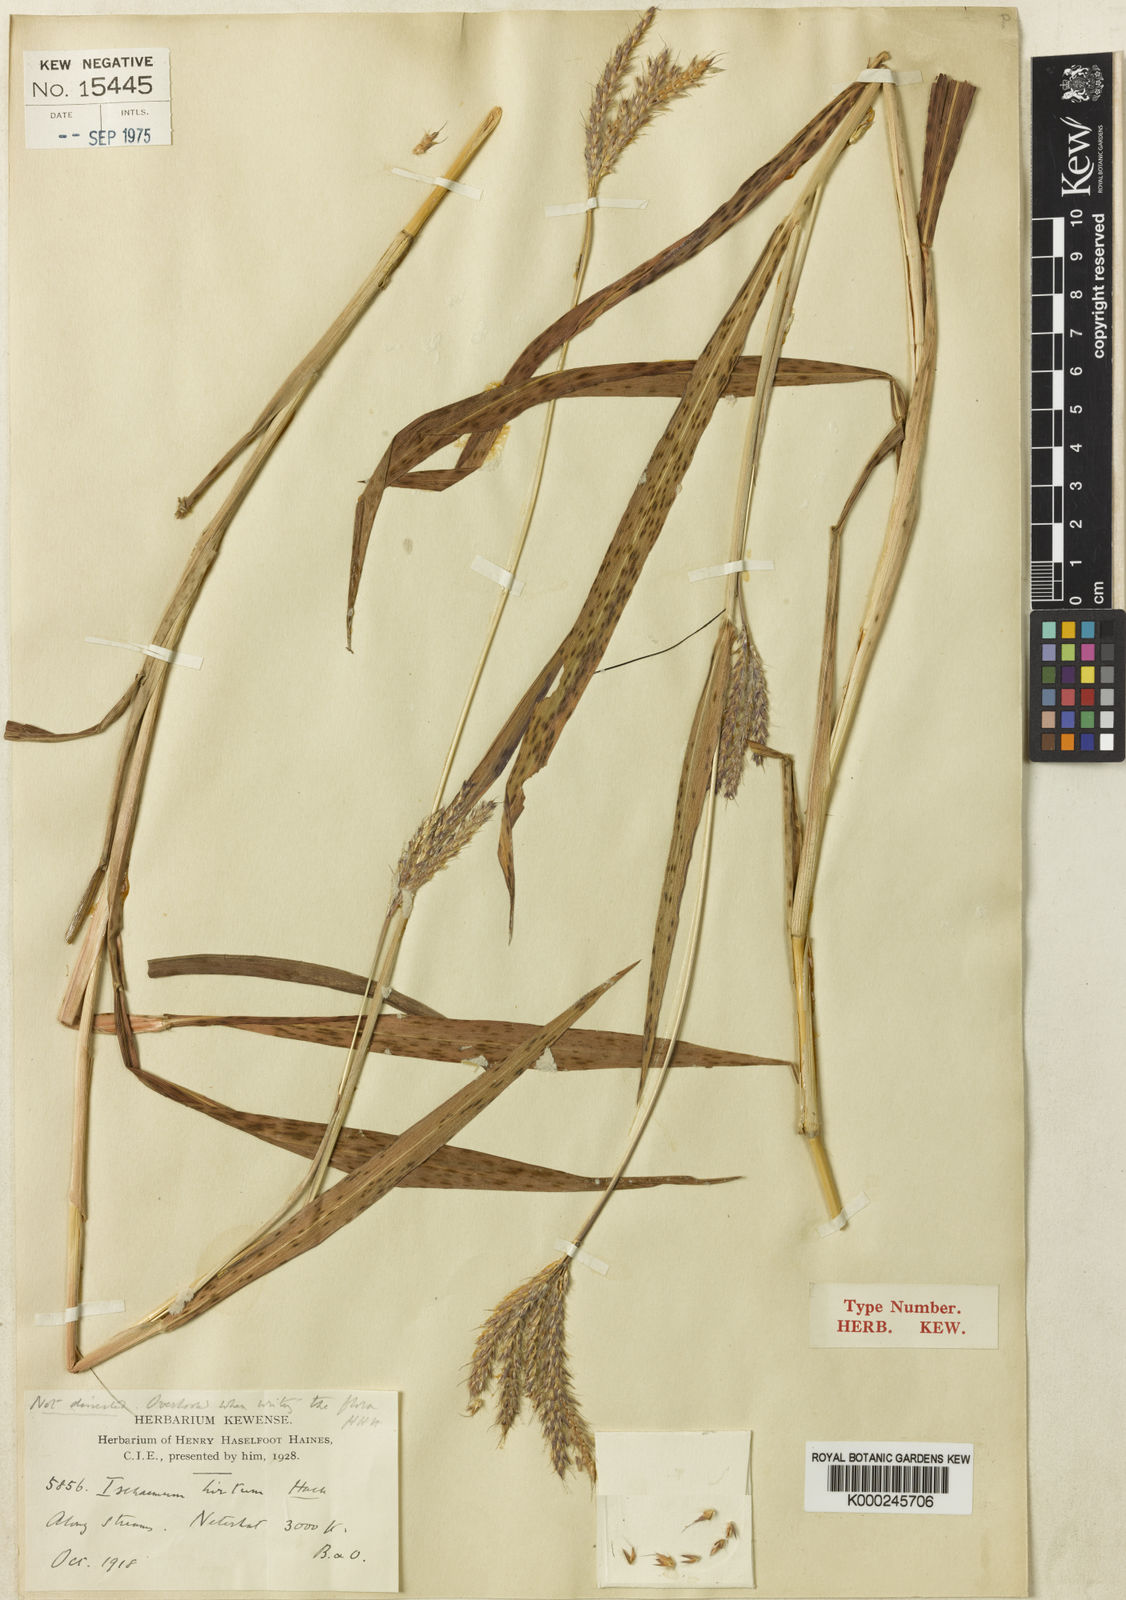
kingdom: Plantae
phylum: Tracheophyta
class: Liliopsida
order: Poales
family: Poaceae
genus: Ischaemum
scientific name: Ischaemum polystachyum
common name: Paddle grass
